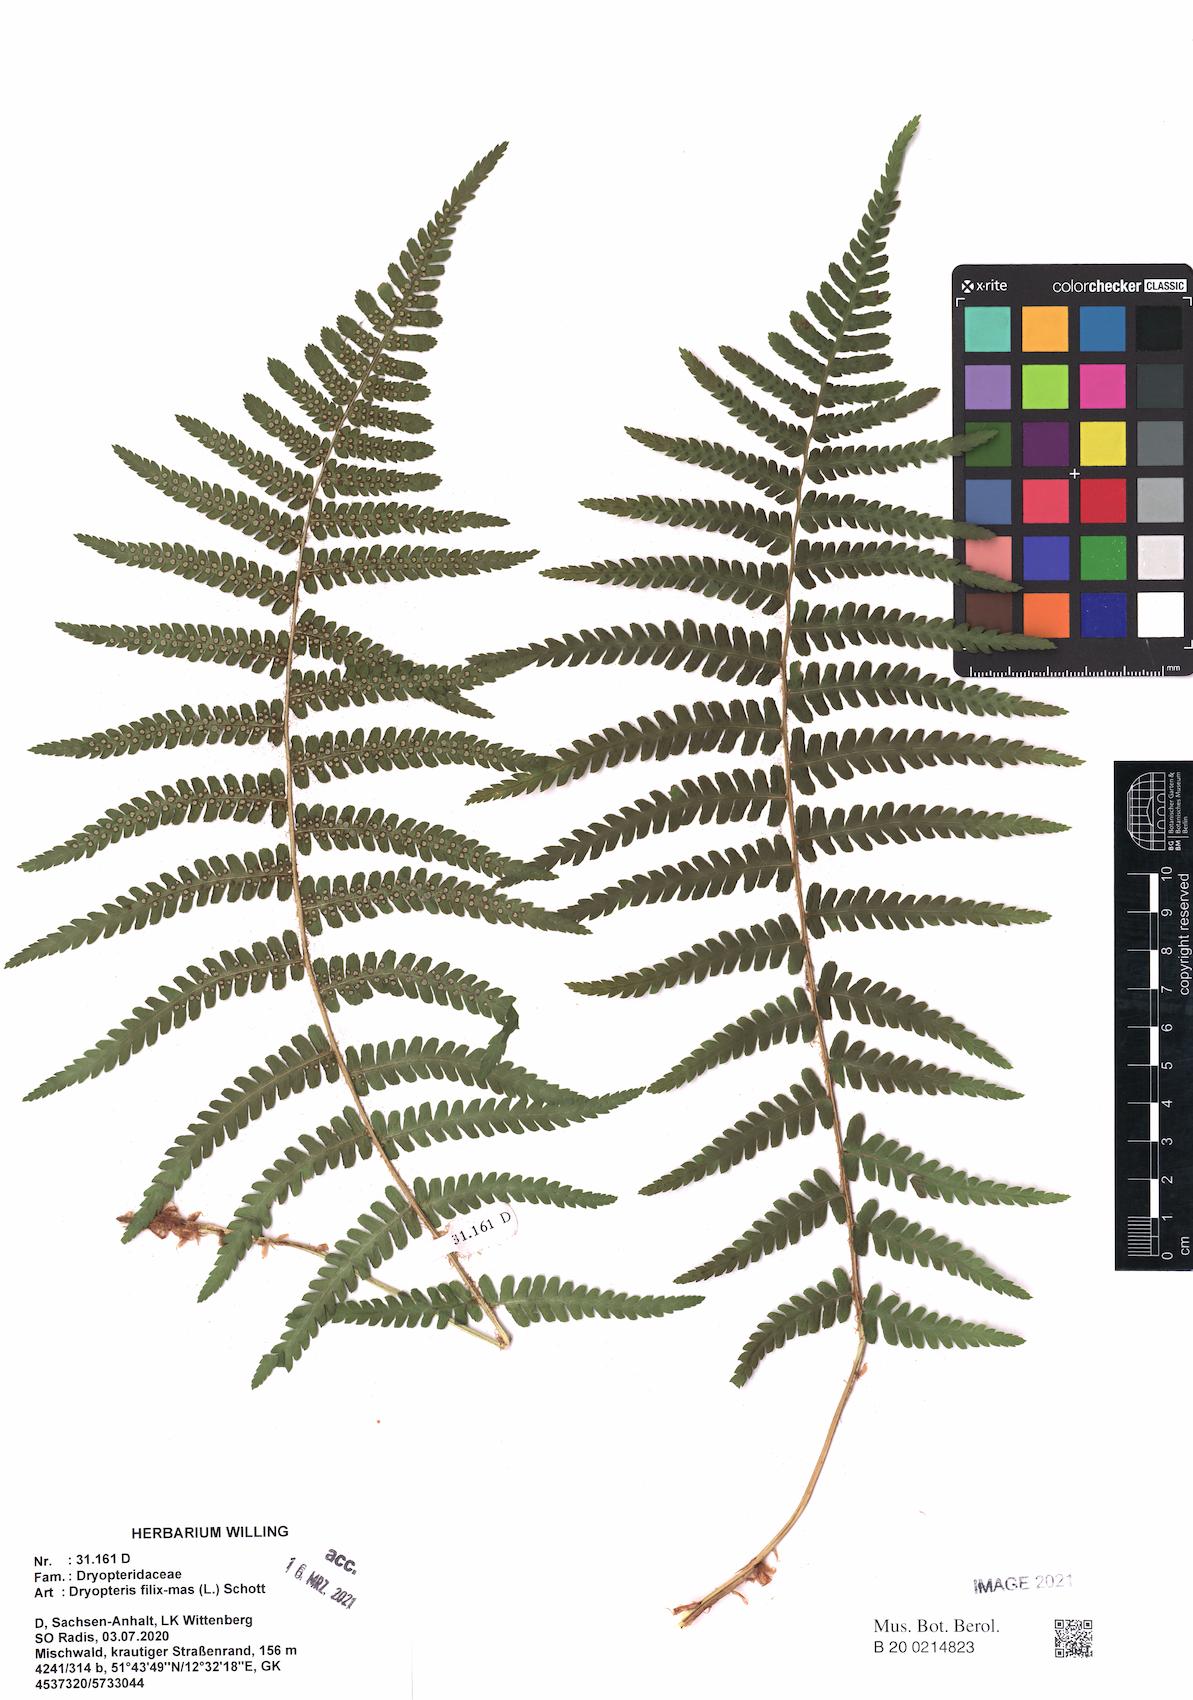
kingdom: Plantae
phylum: Tracheophyta
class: Polypodiopsida
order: Polypodiales
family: Dryopteridaceae
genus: Dryopteris
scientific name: Dryopteris affinis
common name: Scaly male fern
